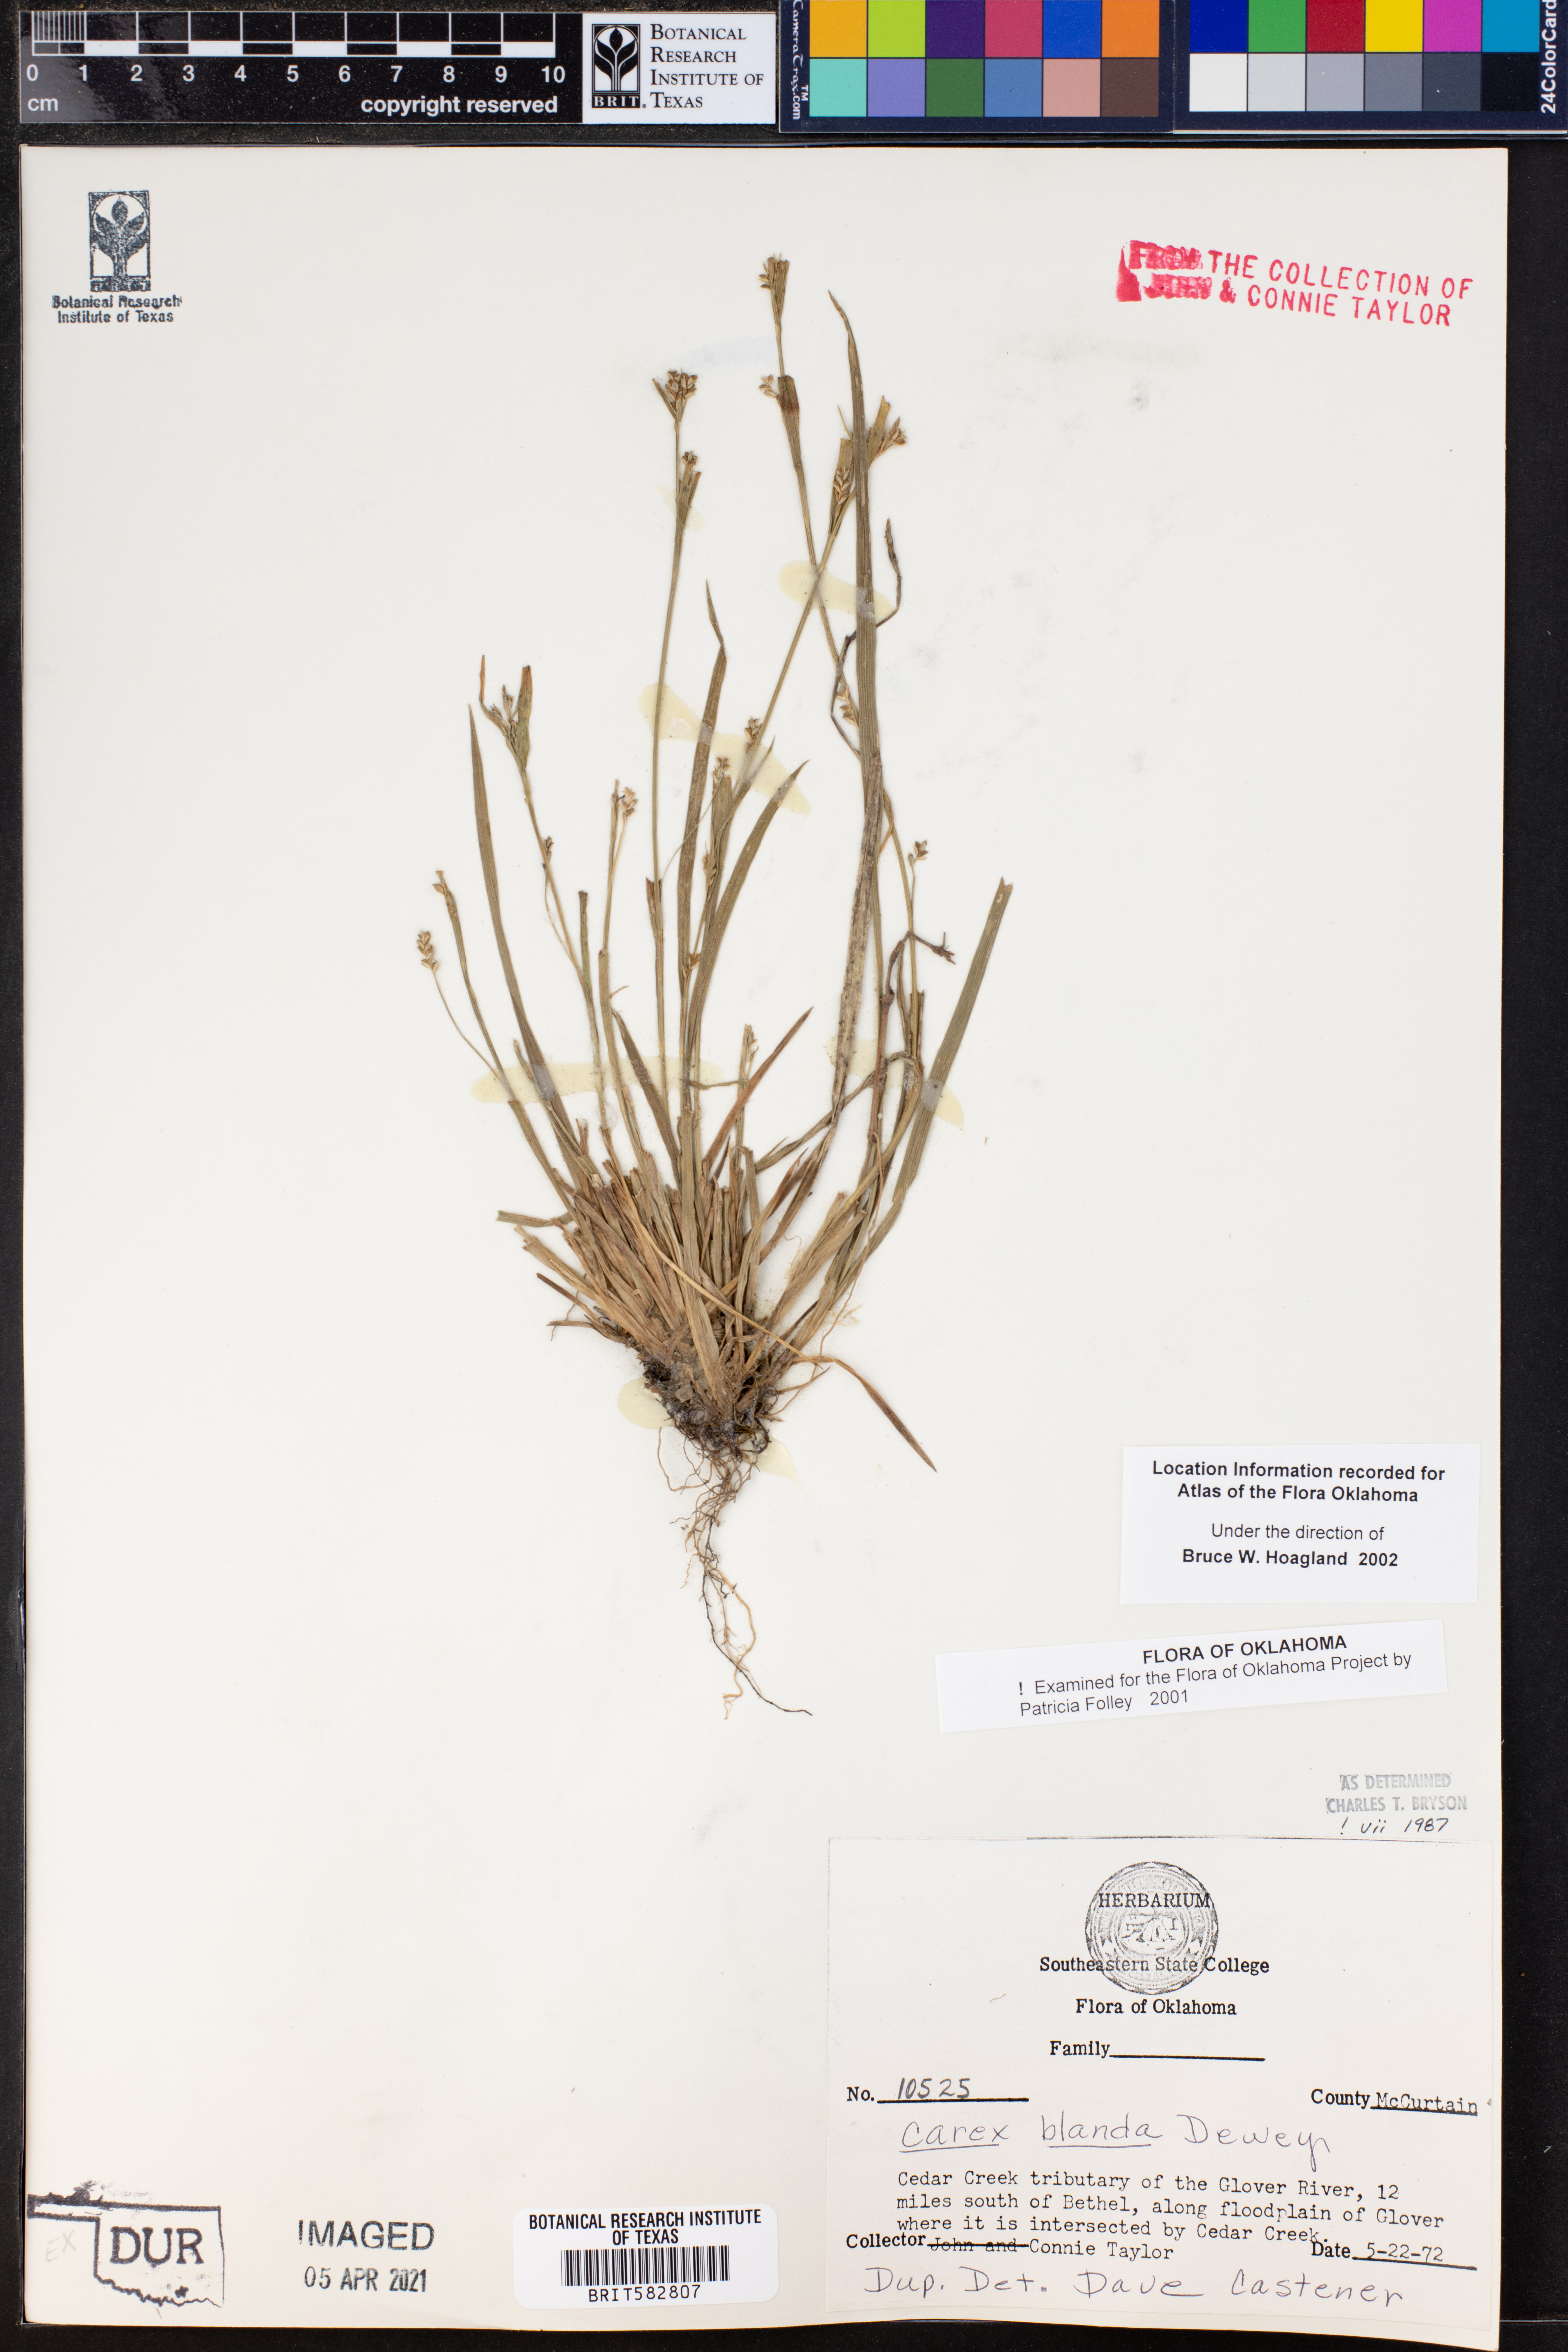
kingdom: Plantae
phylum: Tracheophyta
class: Liliopsida
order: Poales
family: Cyperaceae
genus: Carex
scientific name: Carex blanda
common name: Bland sedge
